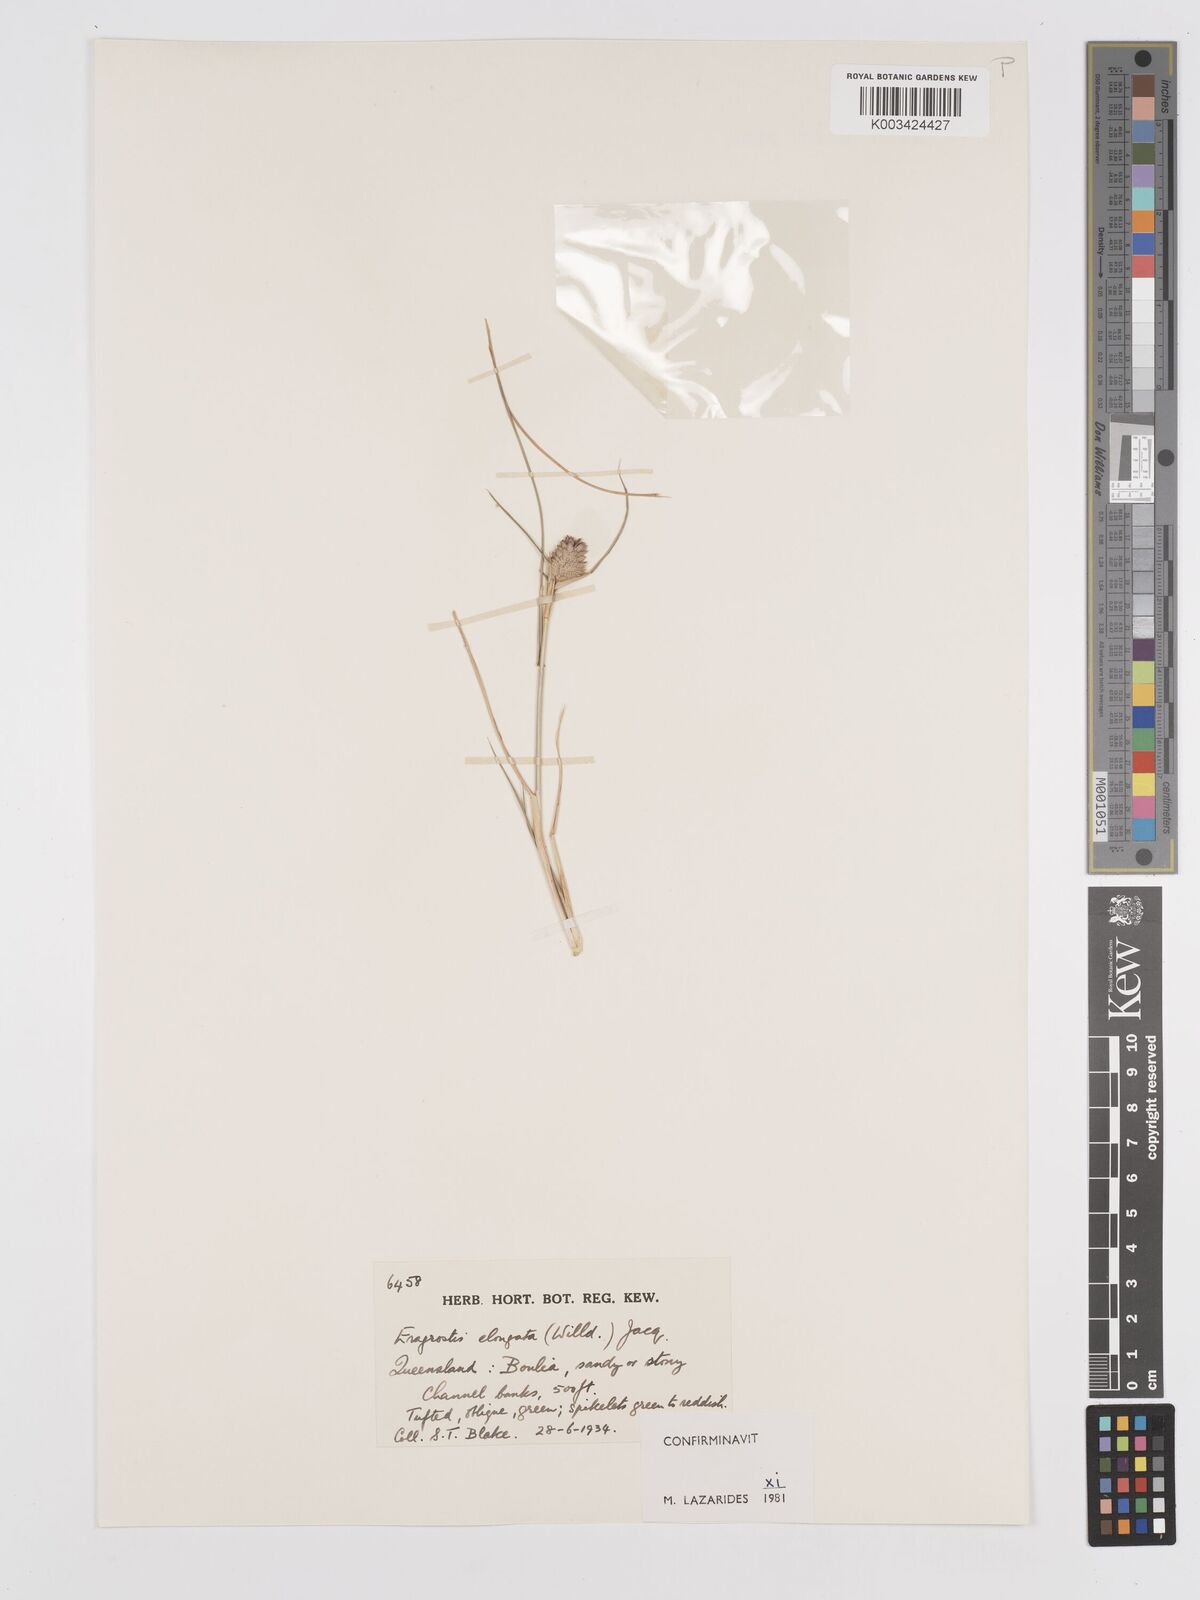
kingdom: Plantae
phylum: Tracheophyta
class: Liliopsida
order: Poales
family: Poaceae
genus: Eragrostis
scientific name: Eragrostis elongata
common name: Long lovegrass
